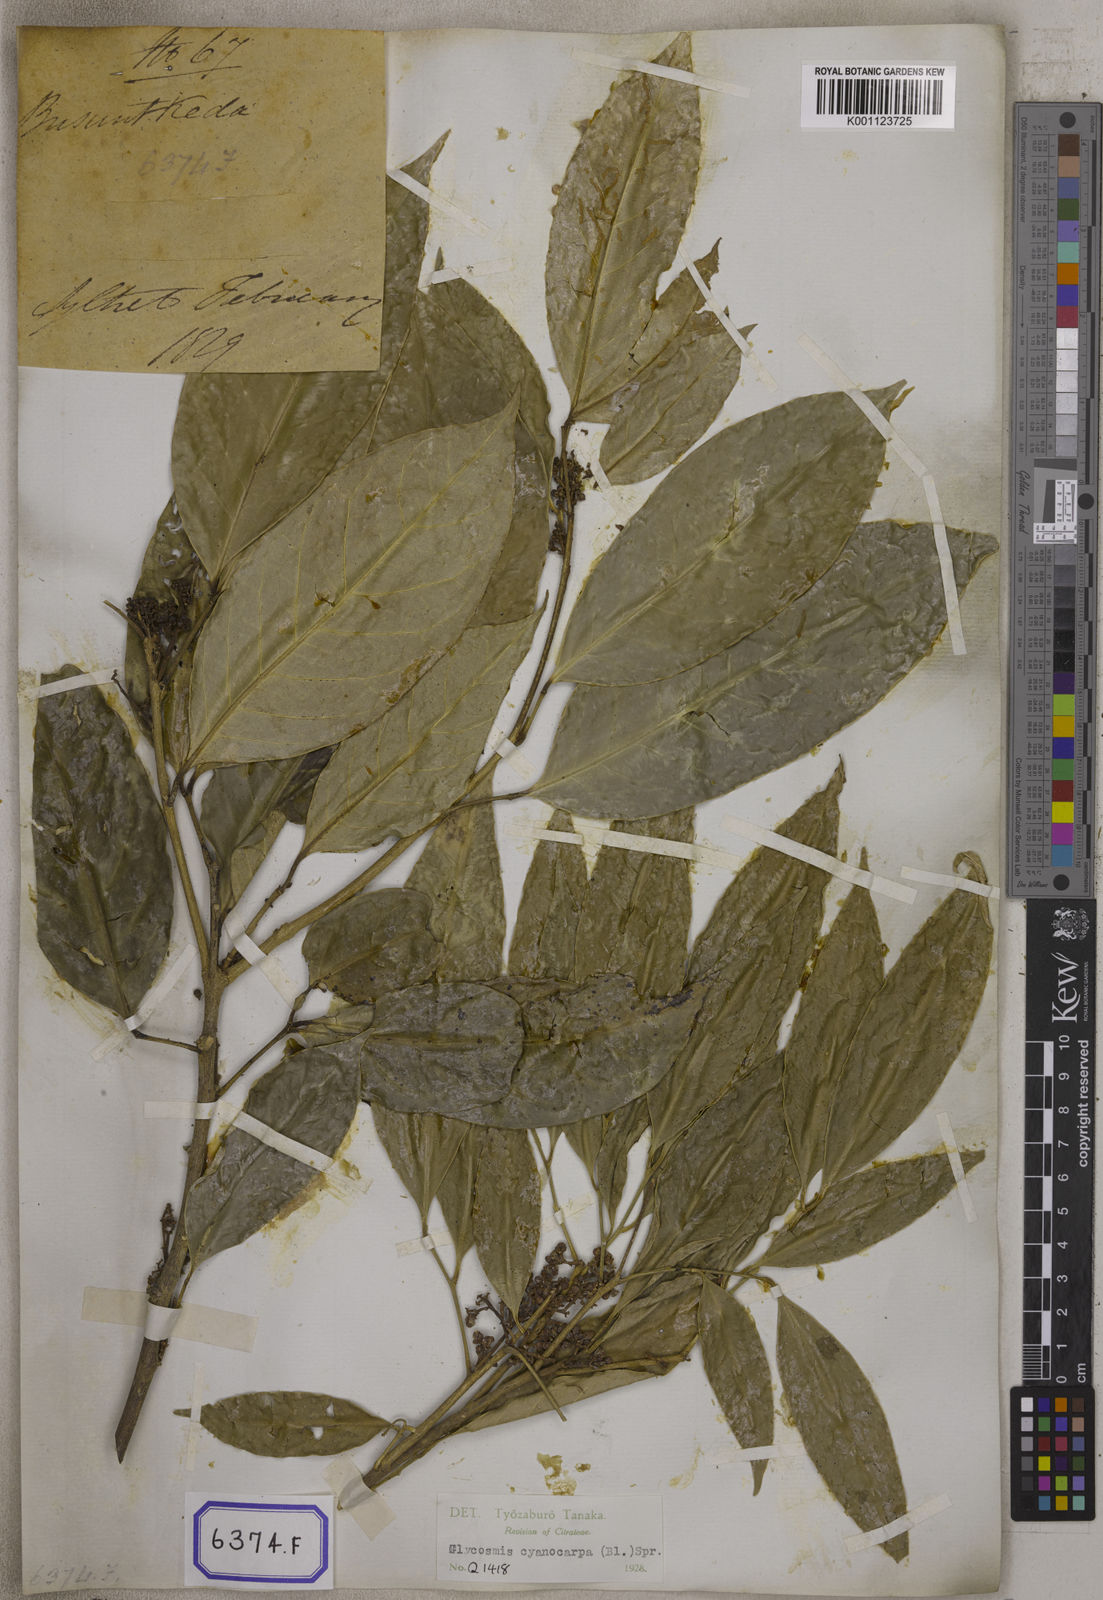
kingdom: Plantae
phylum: Tracheophyta
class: Magnoliopsida
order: Sapindales
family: Rutaceae
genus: Glycosmis
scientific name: Glycosmis pentaphylla
